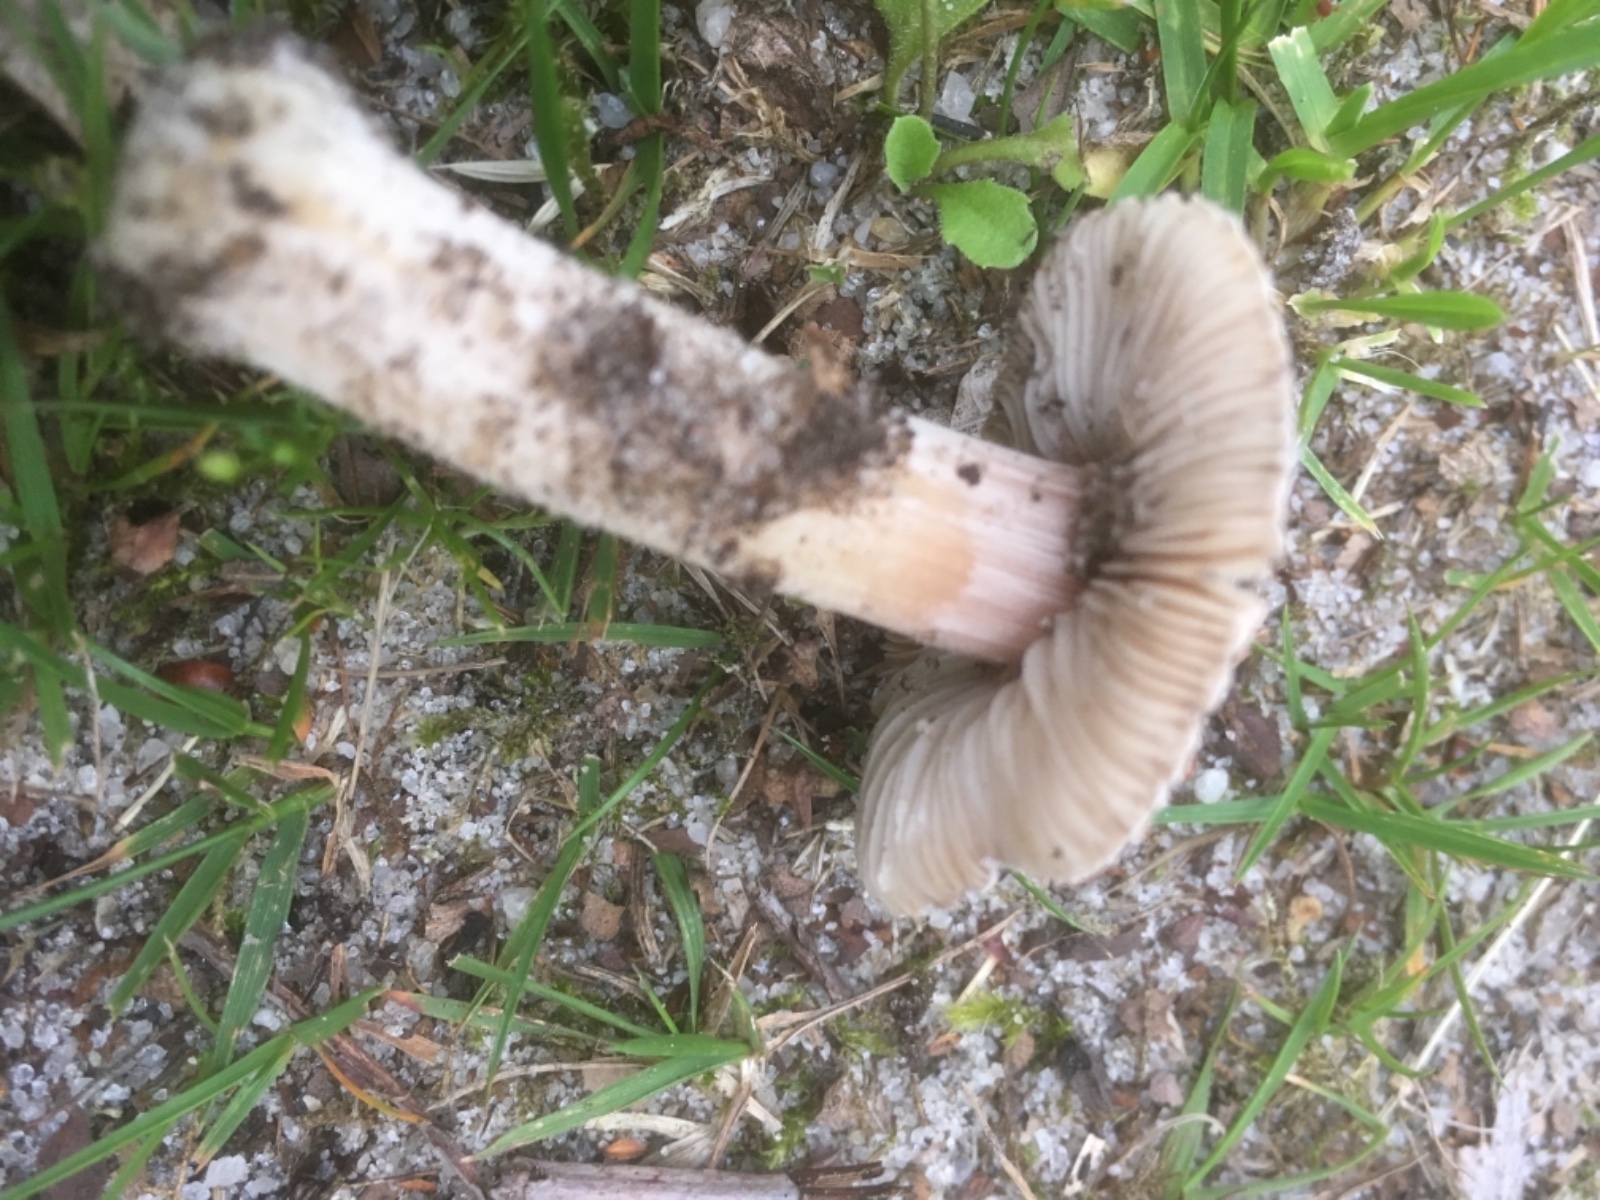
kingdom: Fungi
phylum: Basidiomycota
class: Agaricomycetes
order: Agaricales
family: Inocybaceae
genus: Inocybe
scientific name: Inocybe
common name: trævlhat
